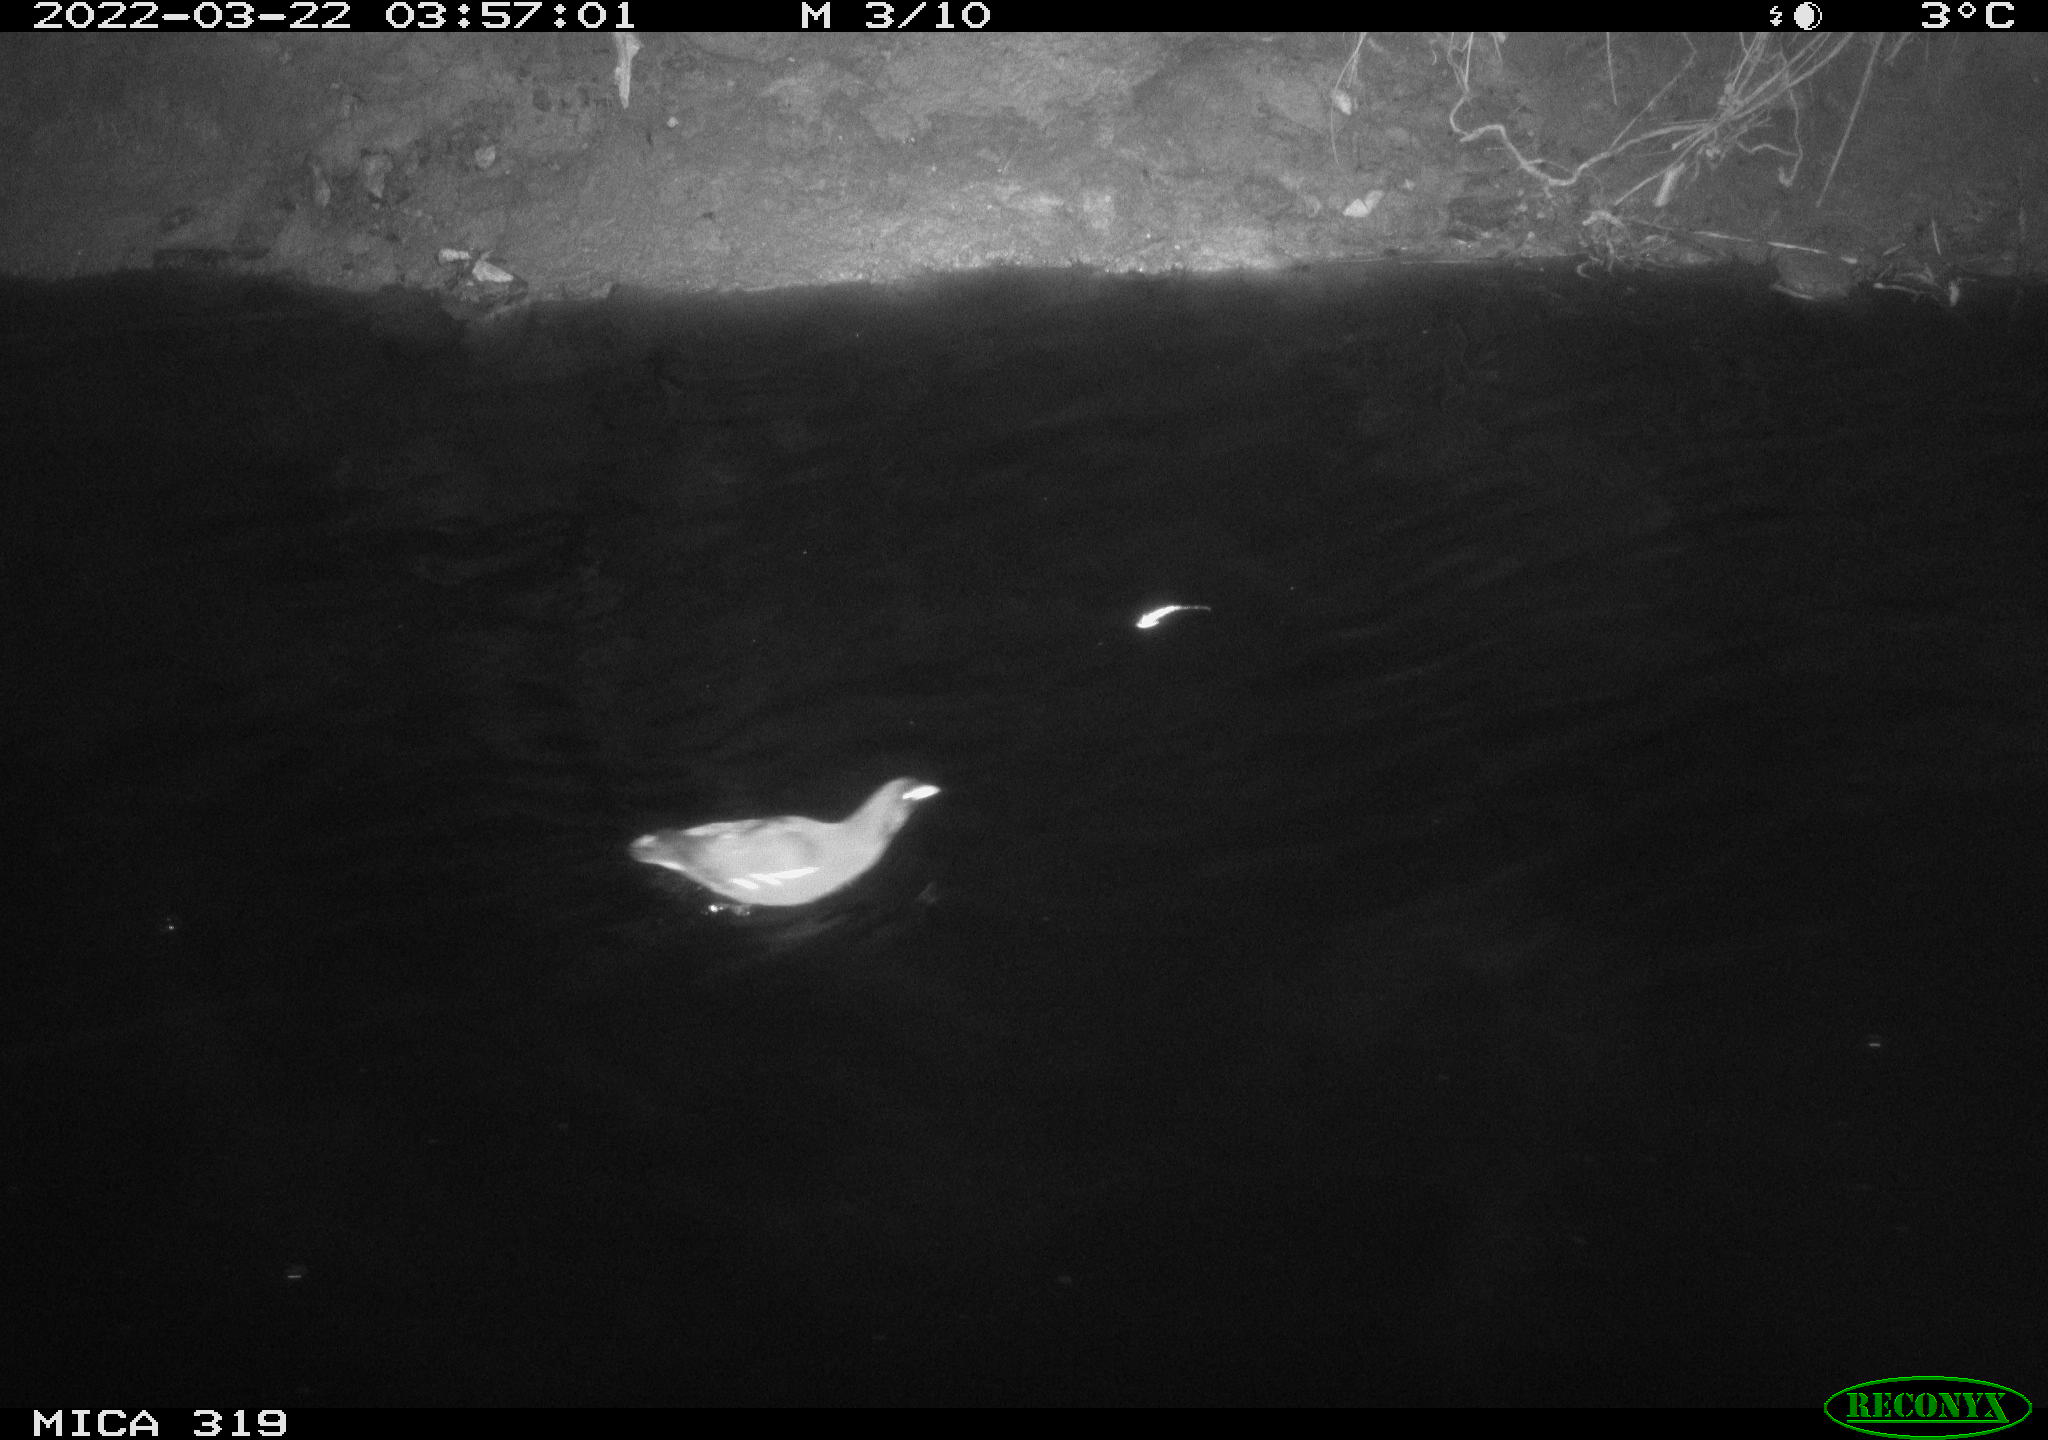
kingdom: Animalia
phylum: Chordata
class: Aves
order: Gruiformes
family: Rallidae
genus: Gallinula
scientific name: Gallinula chloropus
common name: Common moorhen
